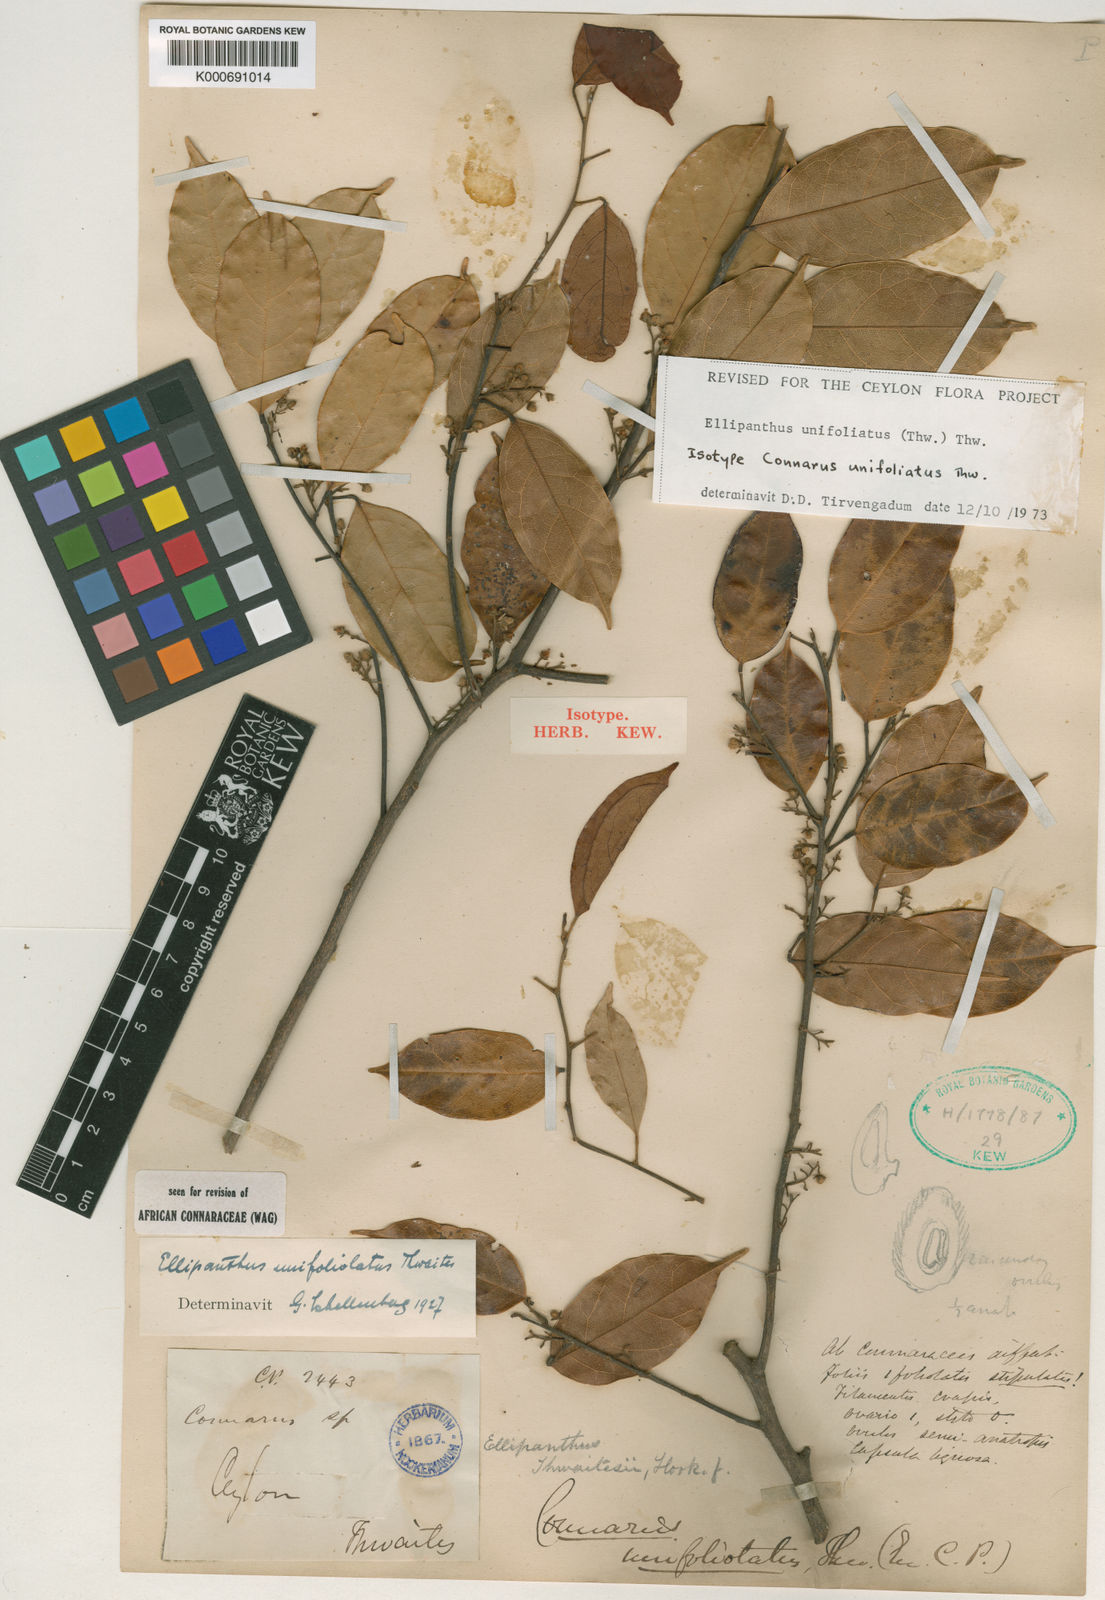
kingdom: Plantae
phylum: Tracheophyta
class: Magnoliopsida
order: Oxalidales
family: Connaraceae
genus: Ellipanthus
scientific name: Ellipanthus unifoliolatus
